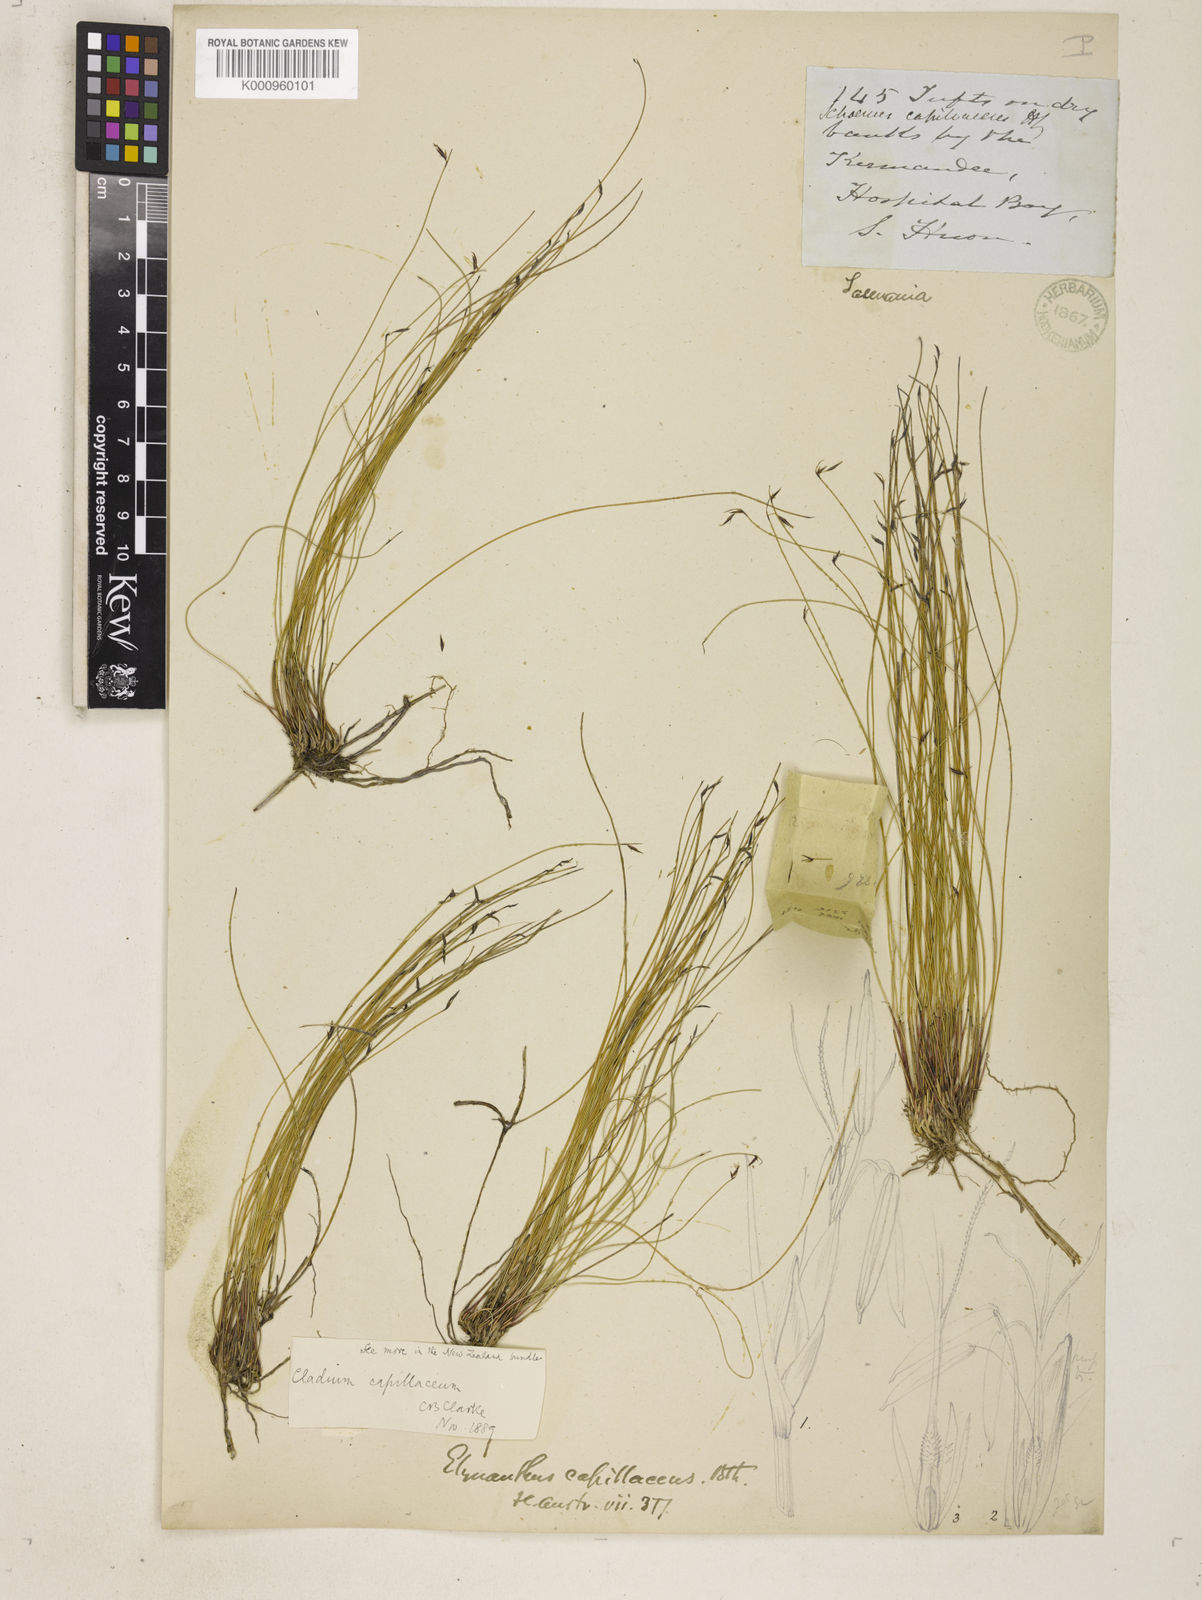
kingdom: Plantae
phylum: Tracheophyta
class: Liliopsida
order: Poales
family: Cyperaceae
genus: Tetraria
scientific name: Tetraria capillaris
